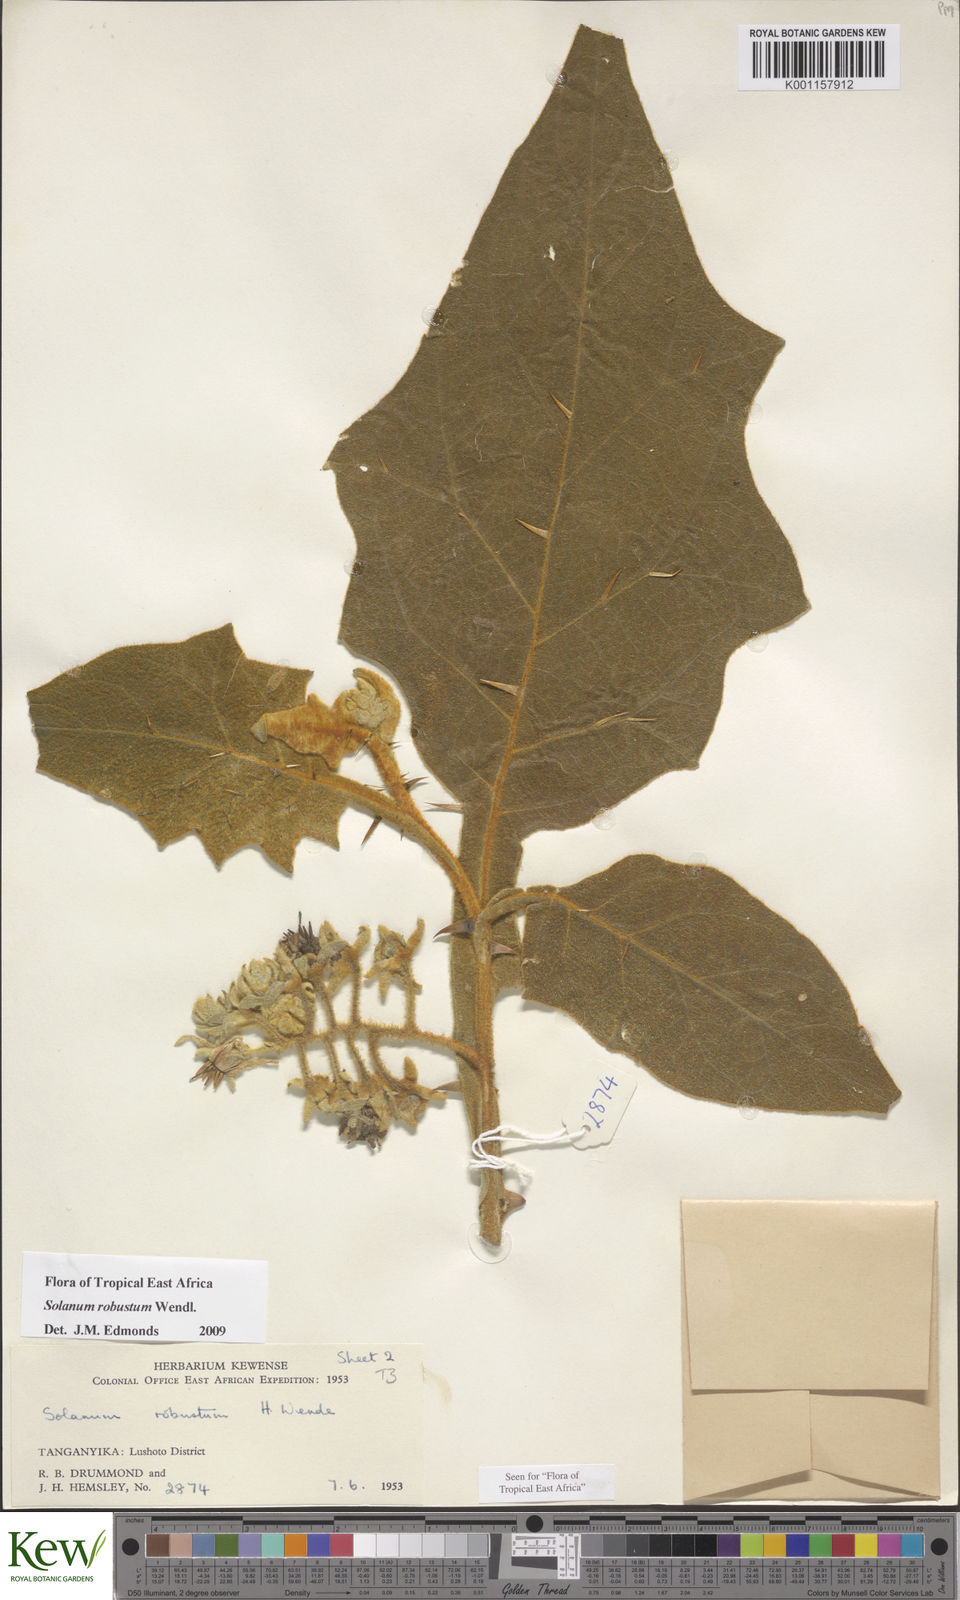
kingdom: Plantae
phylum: Tracheophyta
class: Magnoliopsida
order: Solanales
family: Solanaceae
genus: Solanum
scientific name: Solanum robustum
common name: Shrubby nightshade
